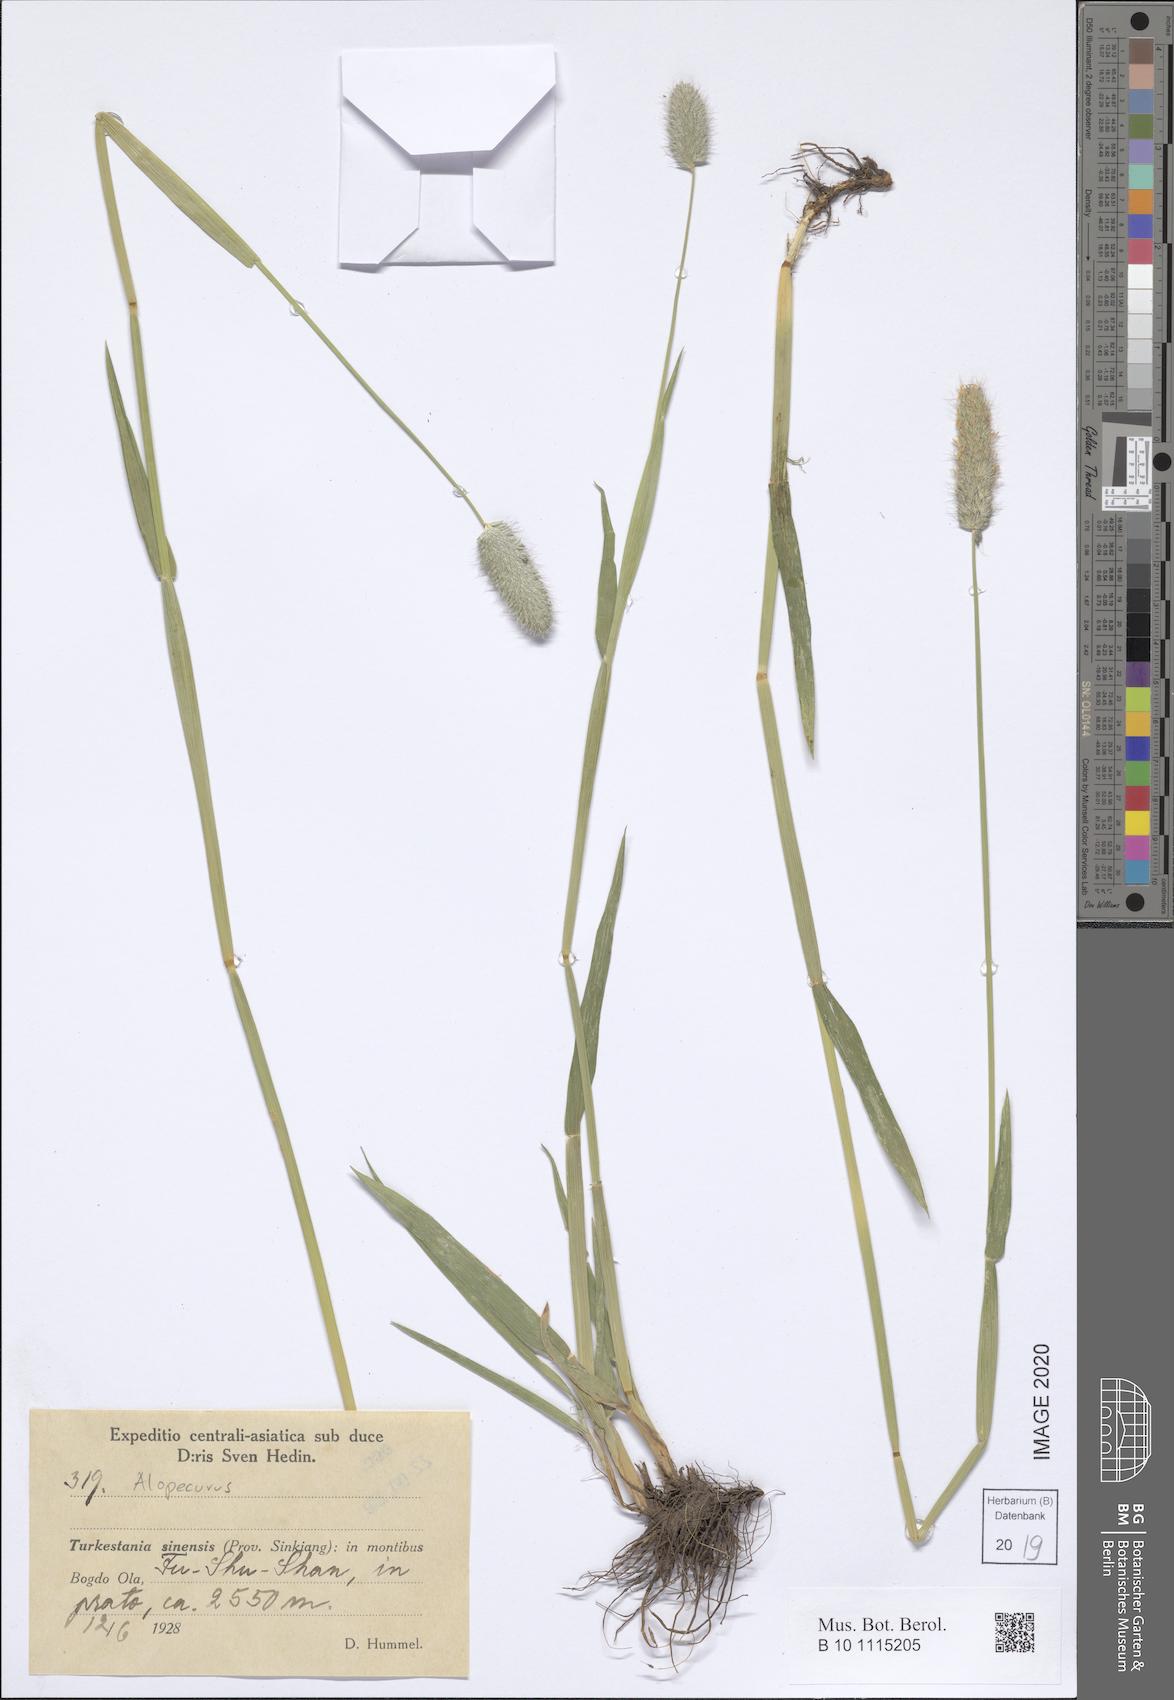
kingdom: Plantae
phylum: Tracheophyta
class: Liliopsida
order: Poales
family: Poaceae
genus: Alopecurus
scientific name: Alopecurus
